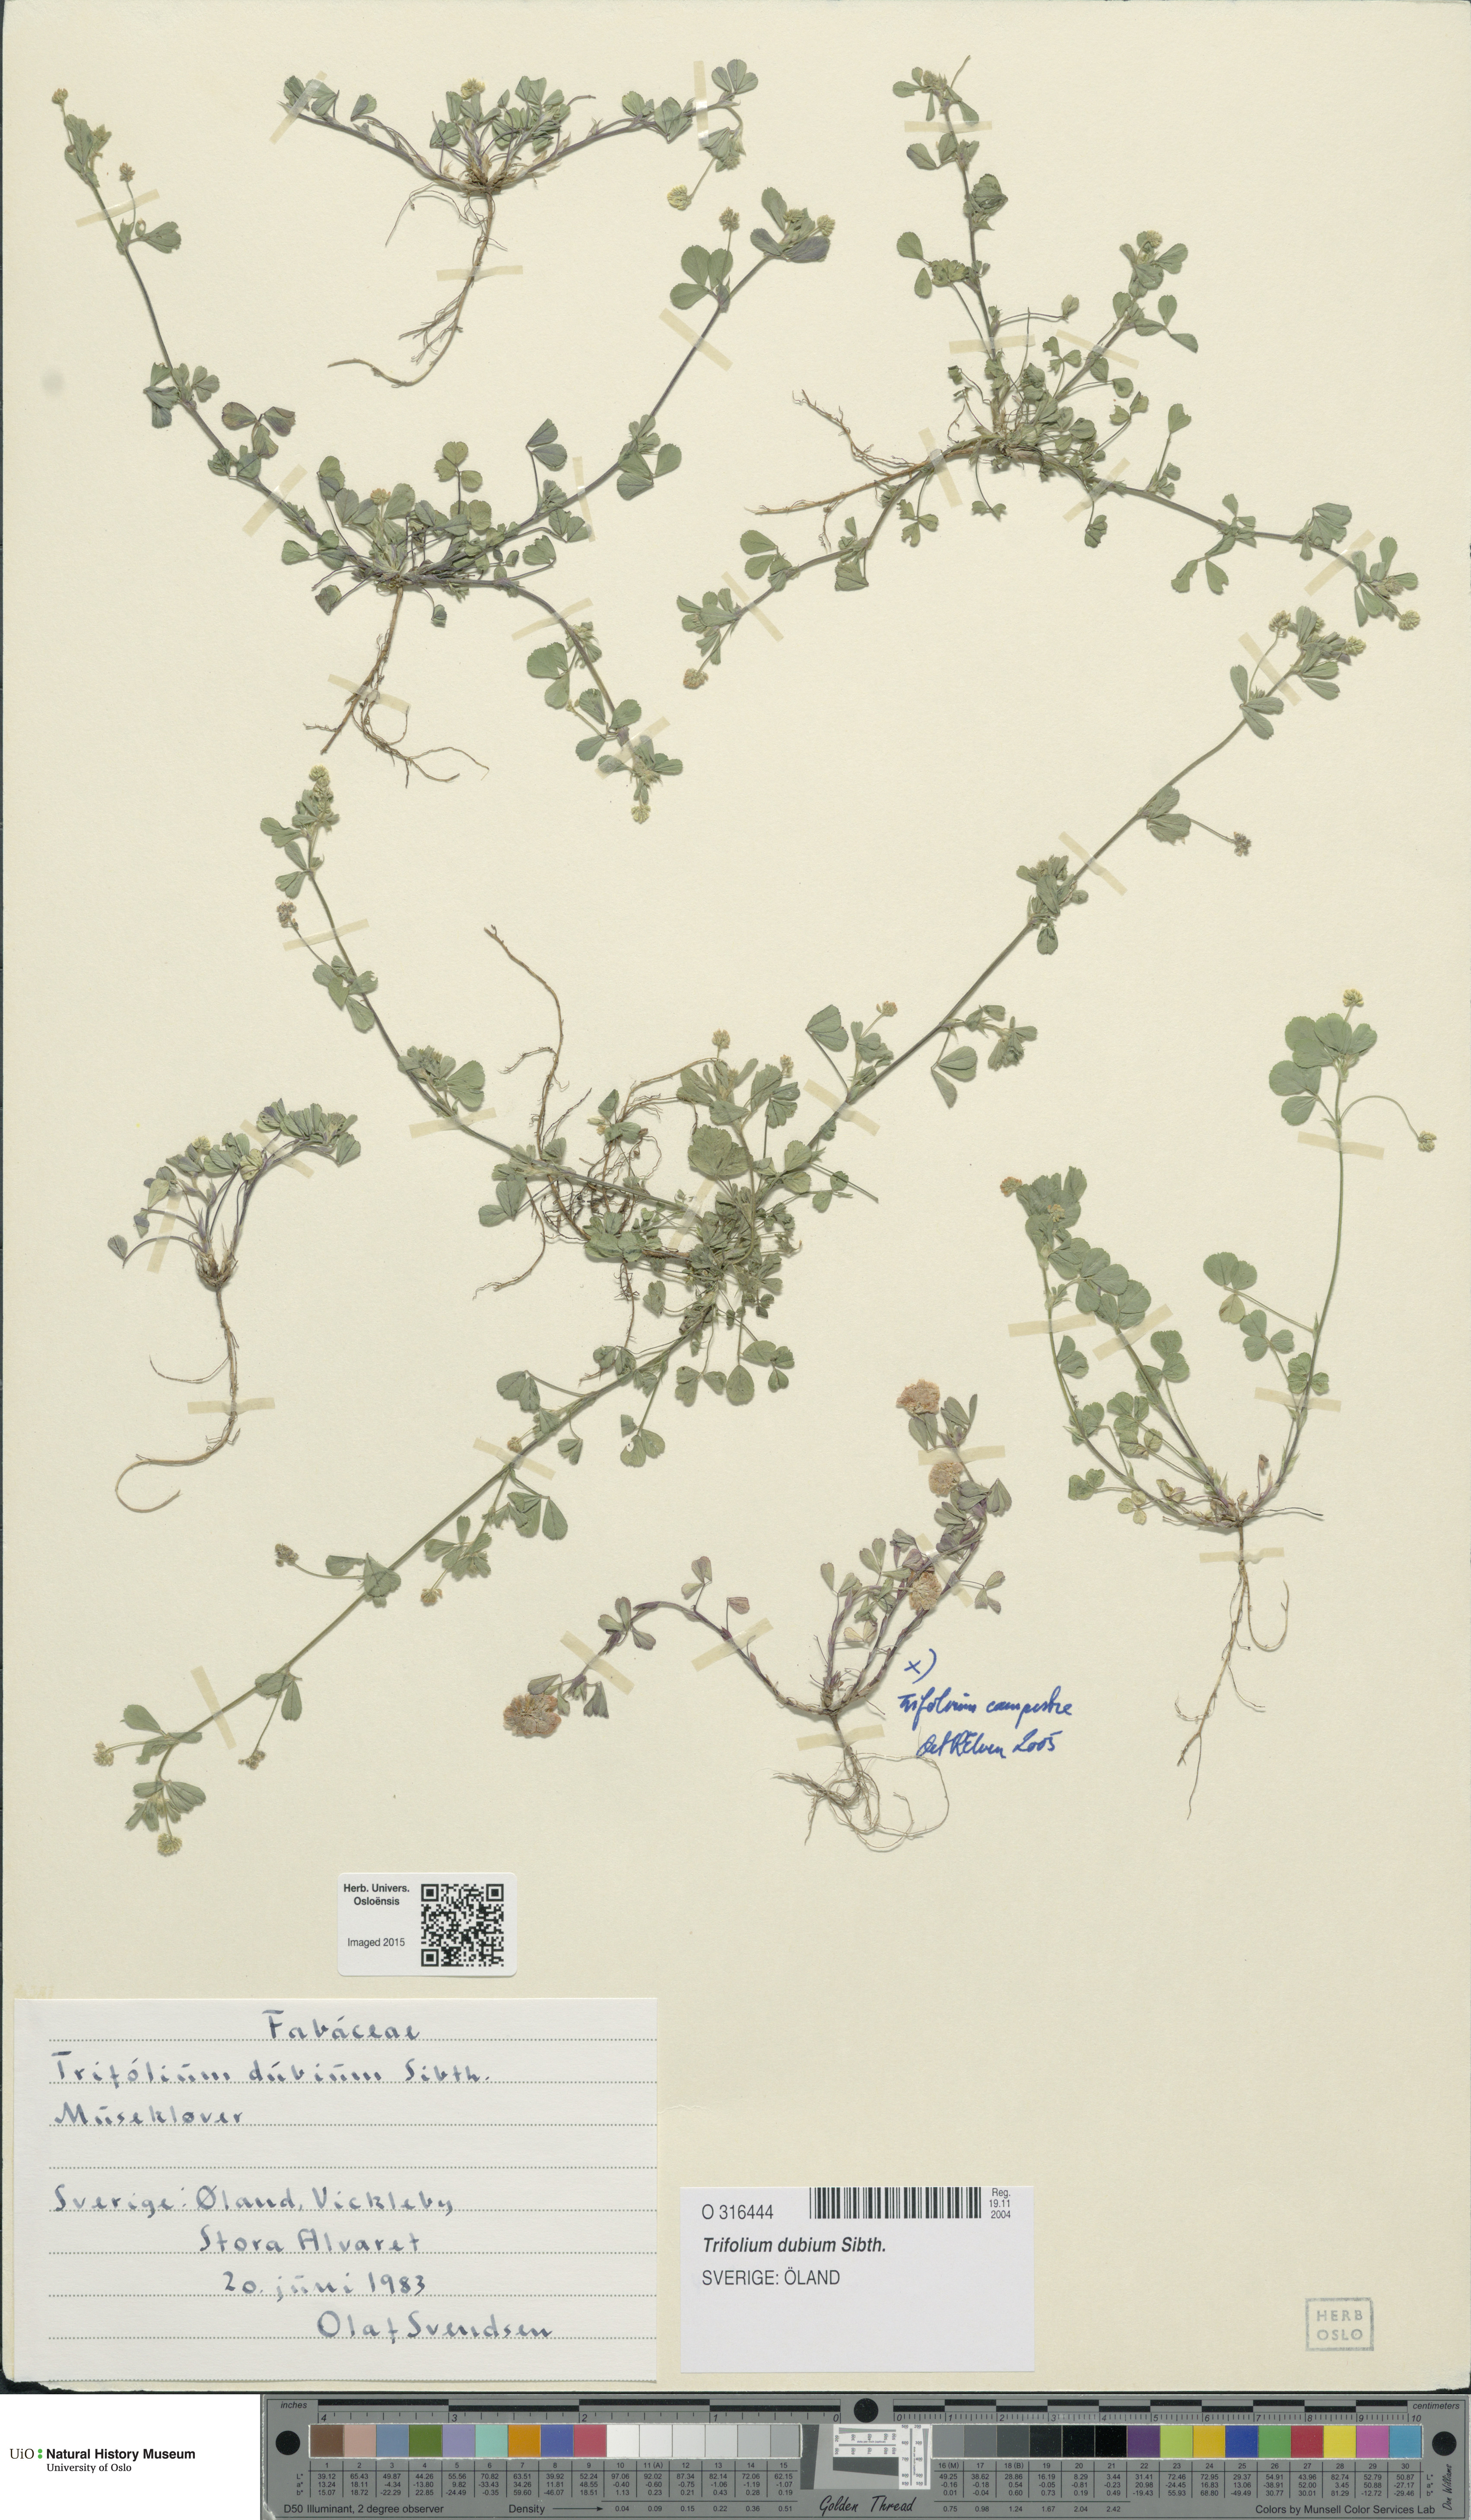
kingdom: Plantae
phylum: Tracheophyta
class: Magnoliopsida
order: Fabales
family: Fabaceae
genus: Trifolium
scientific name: Trifolium dubium
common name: Suckling clover
